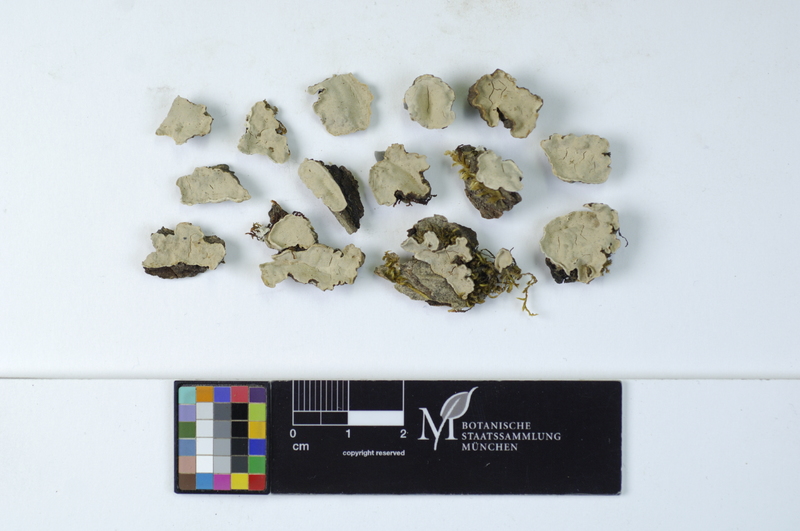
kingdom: Plantae
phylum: Tracheophyta
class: Magnoliopsida
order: Fagales
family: Fagaceae
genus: Quercus
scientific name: Quercus
